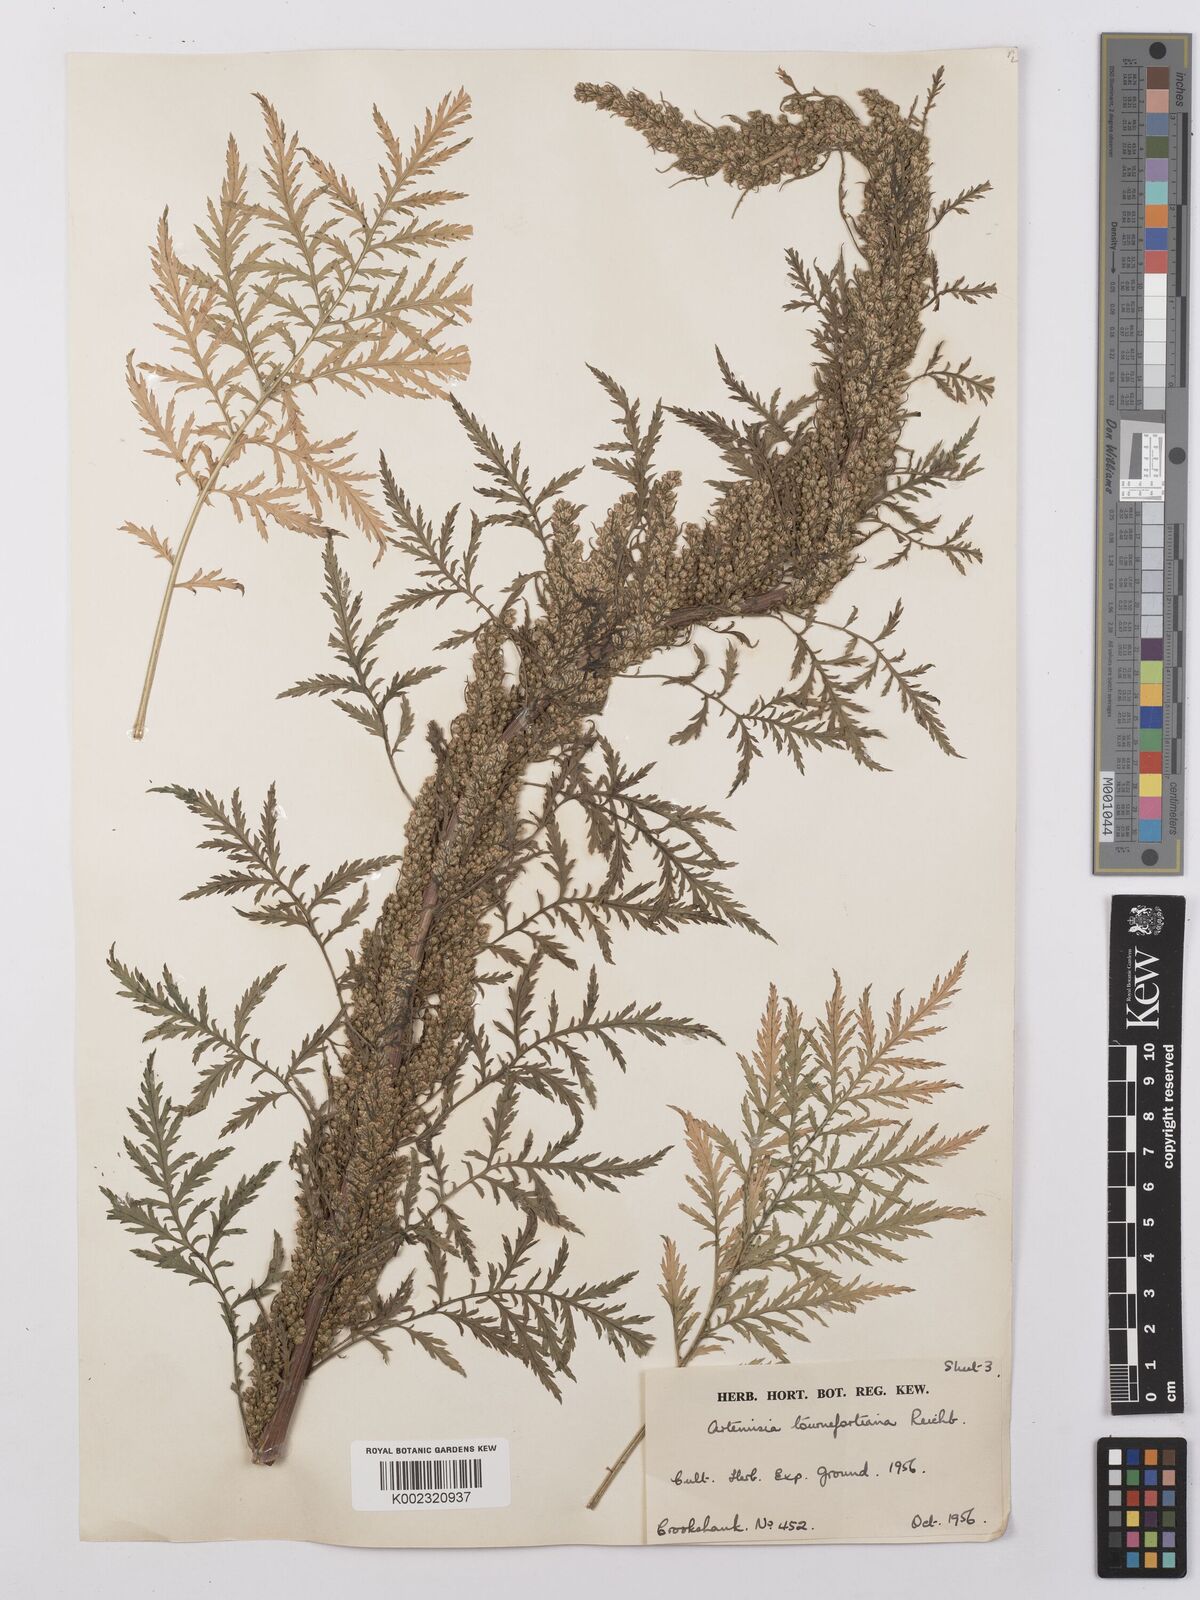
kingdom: Plantae
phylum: Tracheophyta
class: Magnoliopsida
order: Asterales
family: Asteraceae
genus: Artemisia
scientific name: Artemisia tournefortiana
